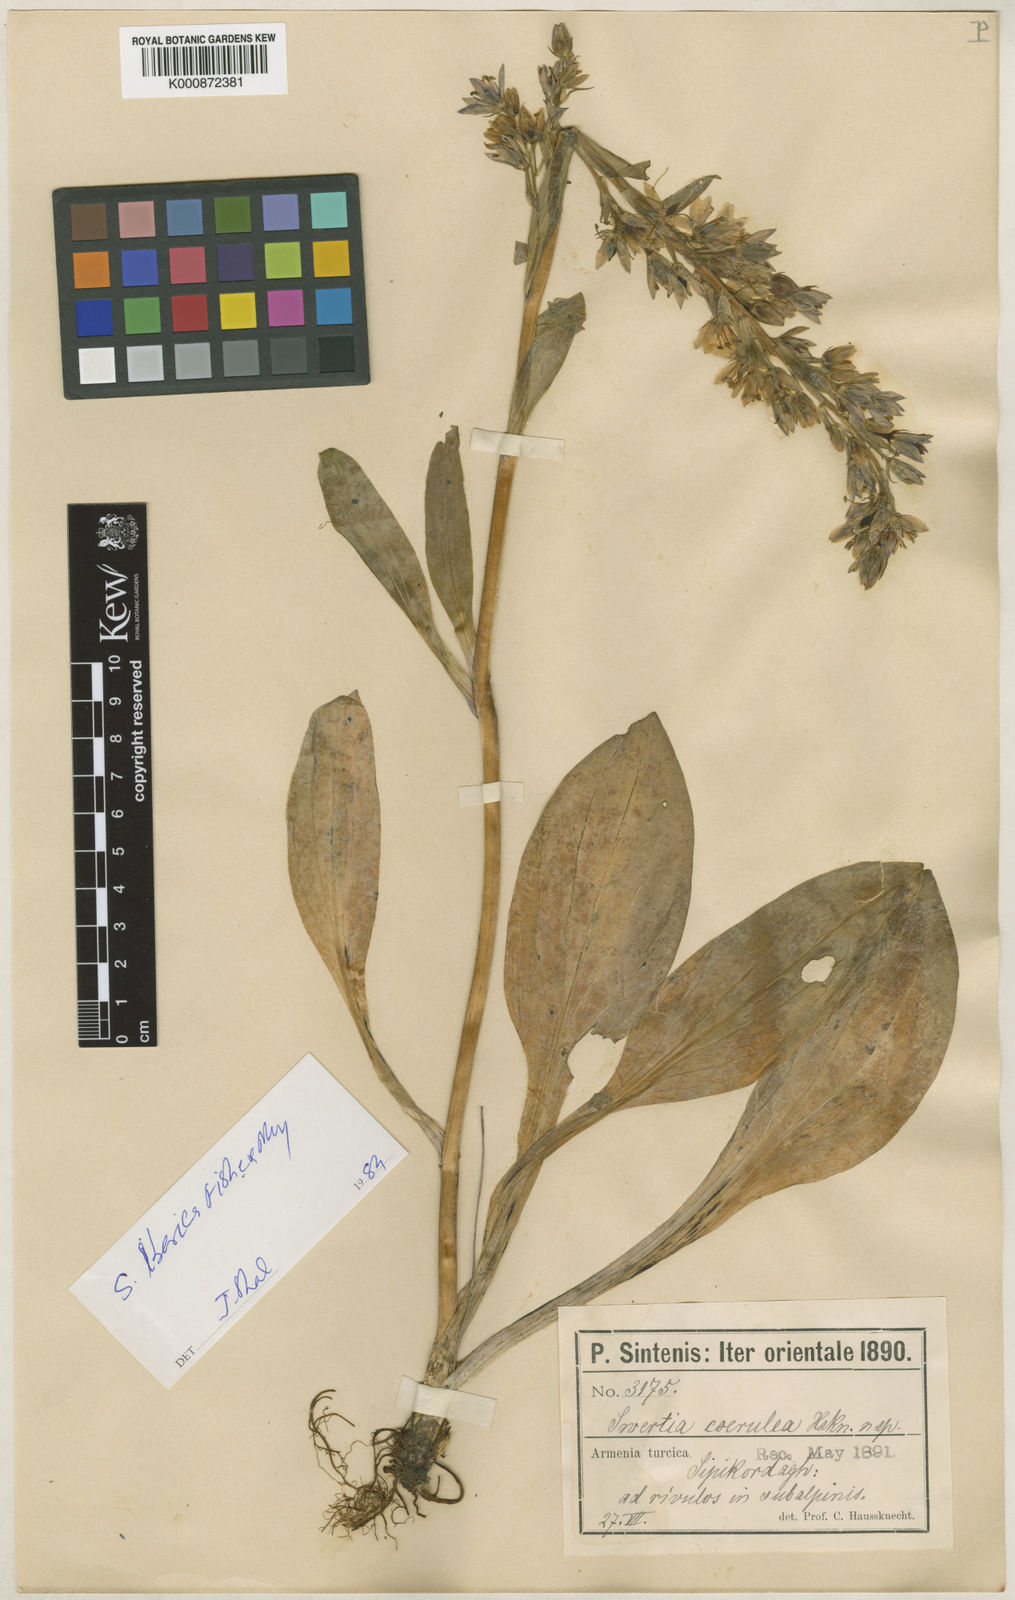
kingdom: Plantae
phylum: Tracheophyta
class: Magnoliopsida
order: Gentianales
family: Gentianaceae
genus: Swertia
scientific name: Swertia
